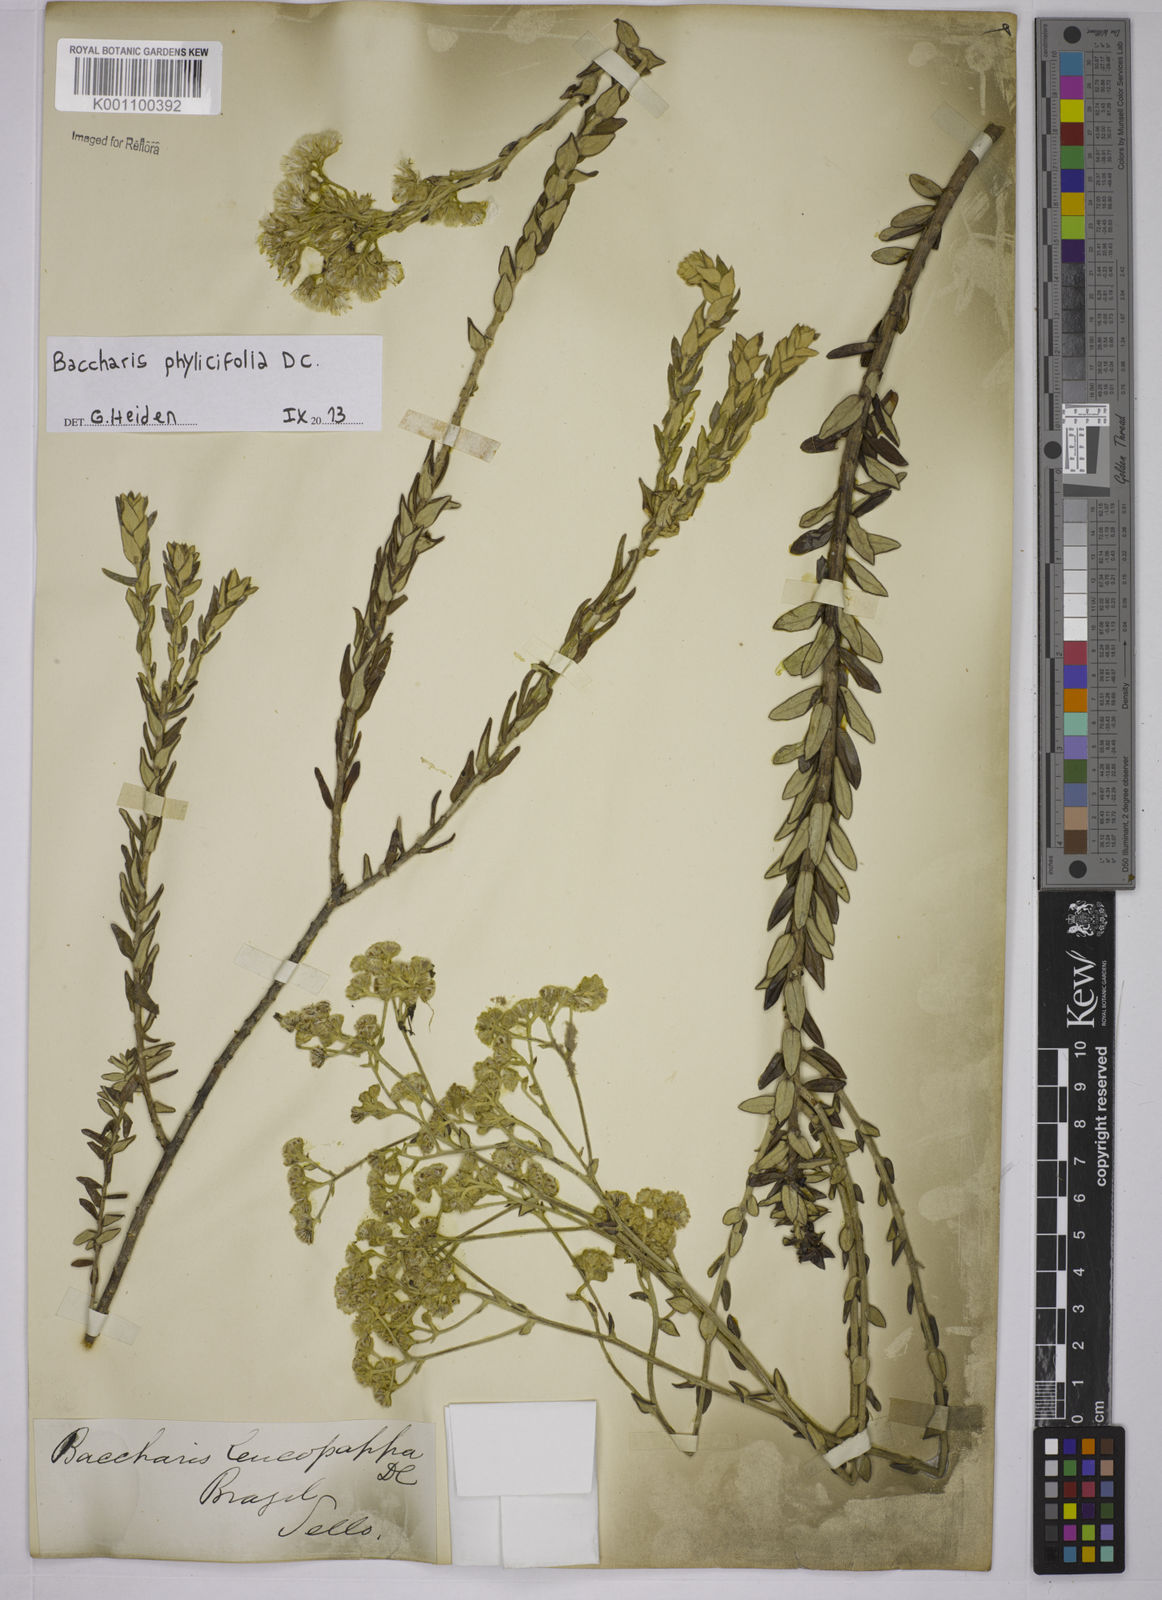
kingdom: Plantae
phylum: Tracheophyta
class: Magnoliopsida
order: Asterales
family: Asteraceae
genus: Baccharis
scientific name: Baccharis leucopappa
